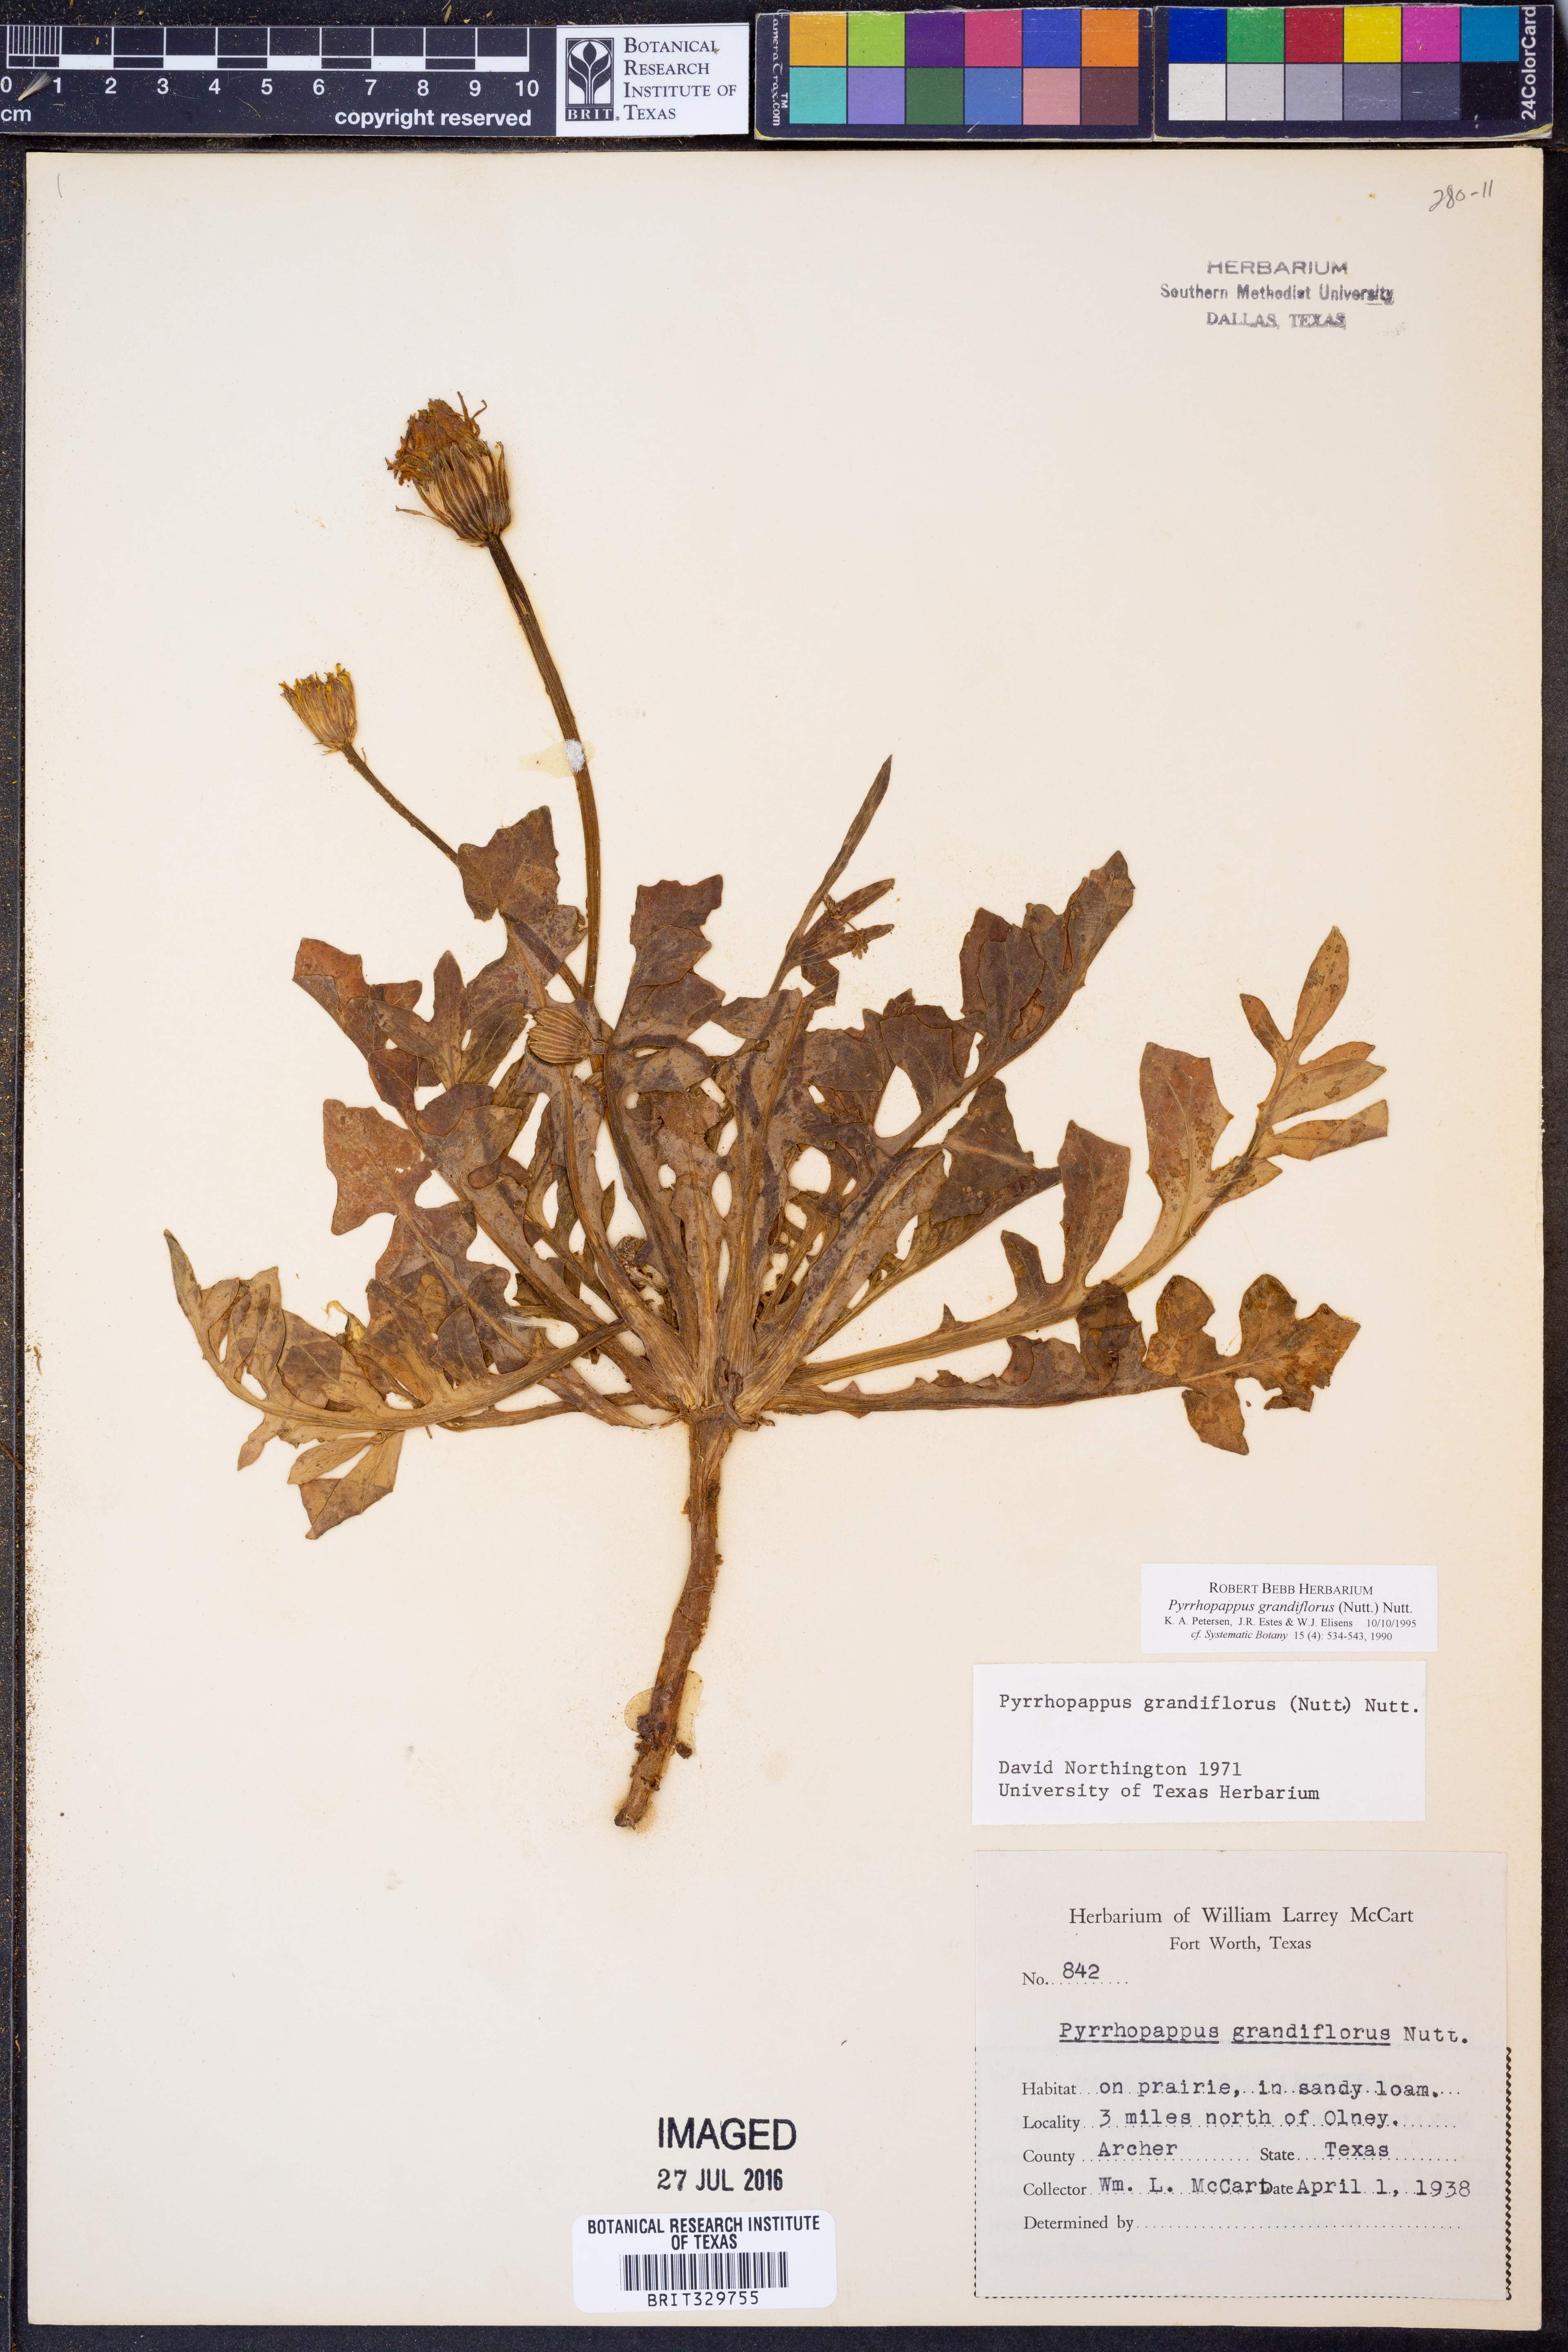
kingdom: Plantae
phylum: Tracheophyta
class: Magnoliopsida
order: Asterales
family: Asteraceae
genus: Pyrrhopappus
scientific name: Pyrrhopappus grandiflorus
